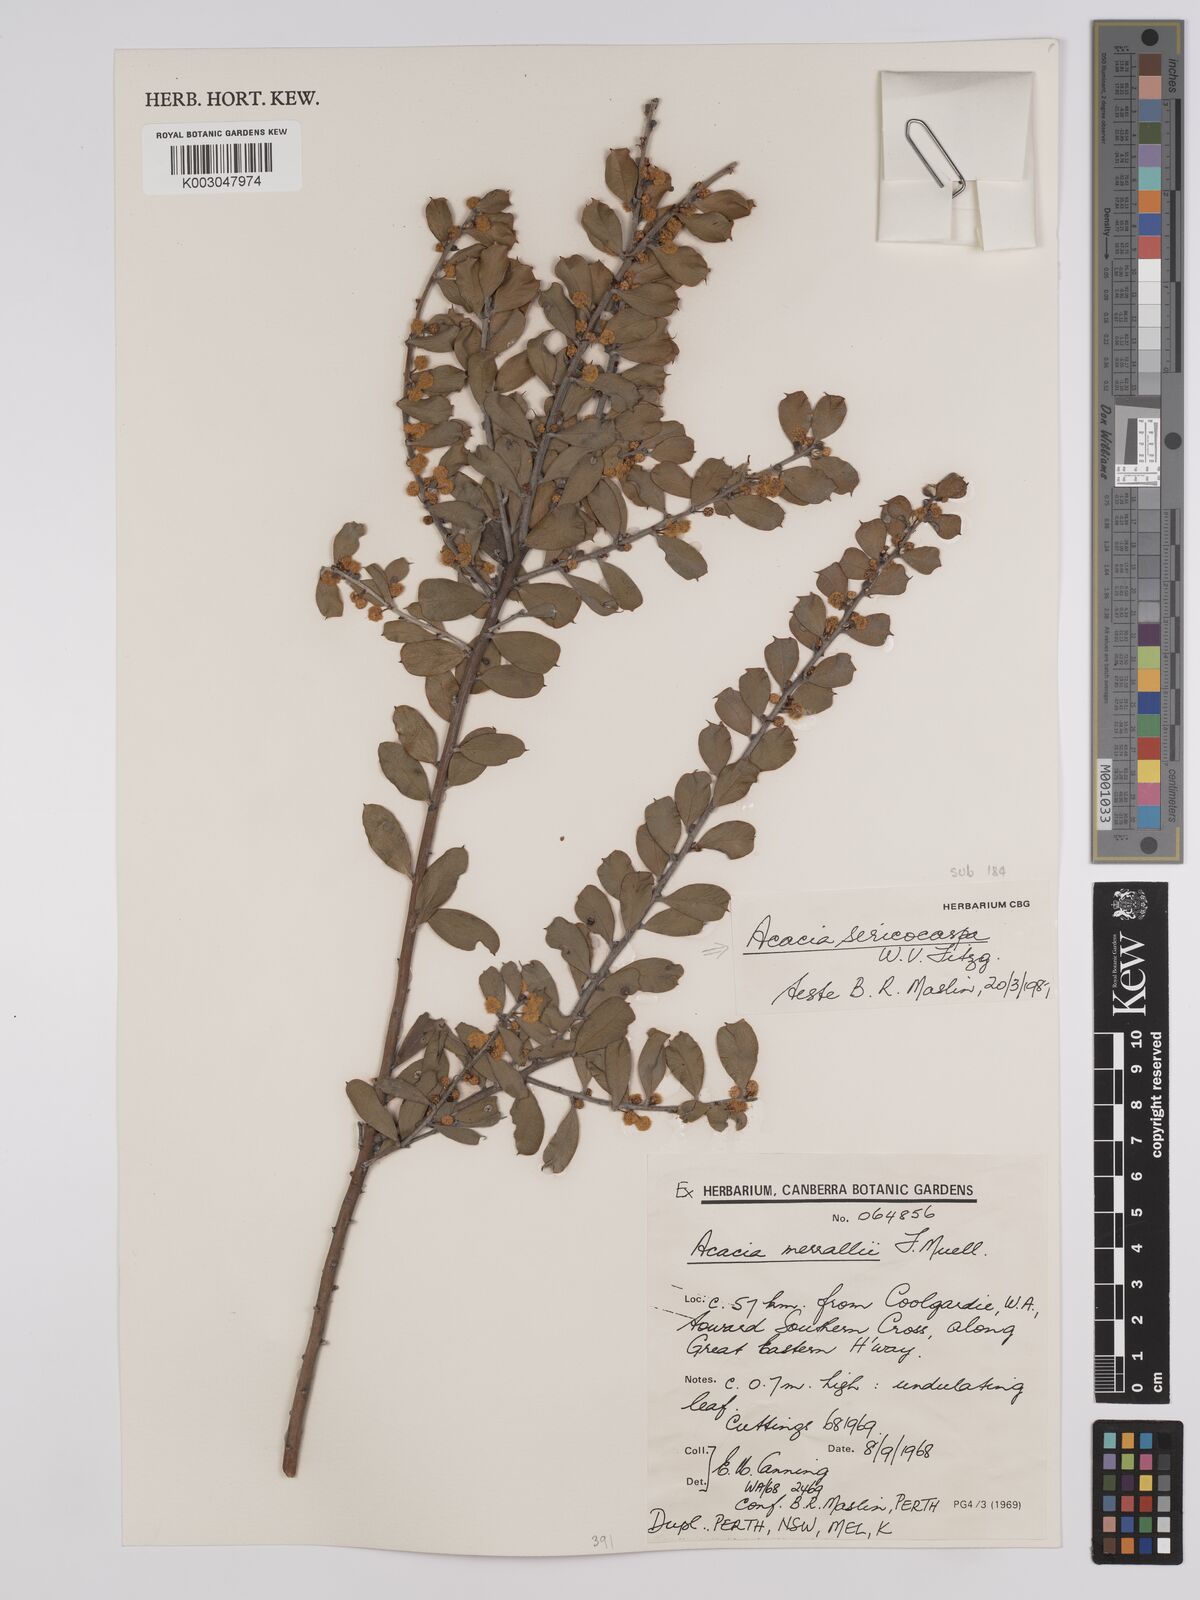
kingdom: Plantae
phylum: Tracheophyta
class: Magnoliopsida
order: Fabales
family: Fabaceae
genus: Acacia
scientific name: Acacia sericocarpa
